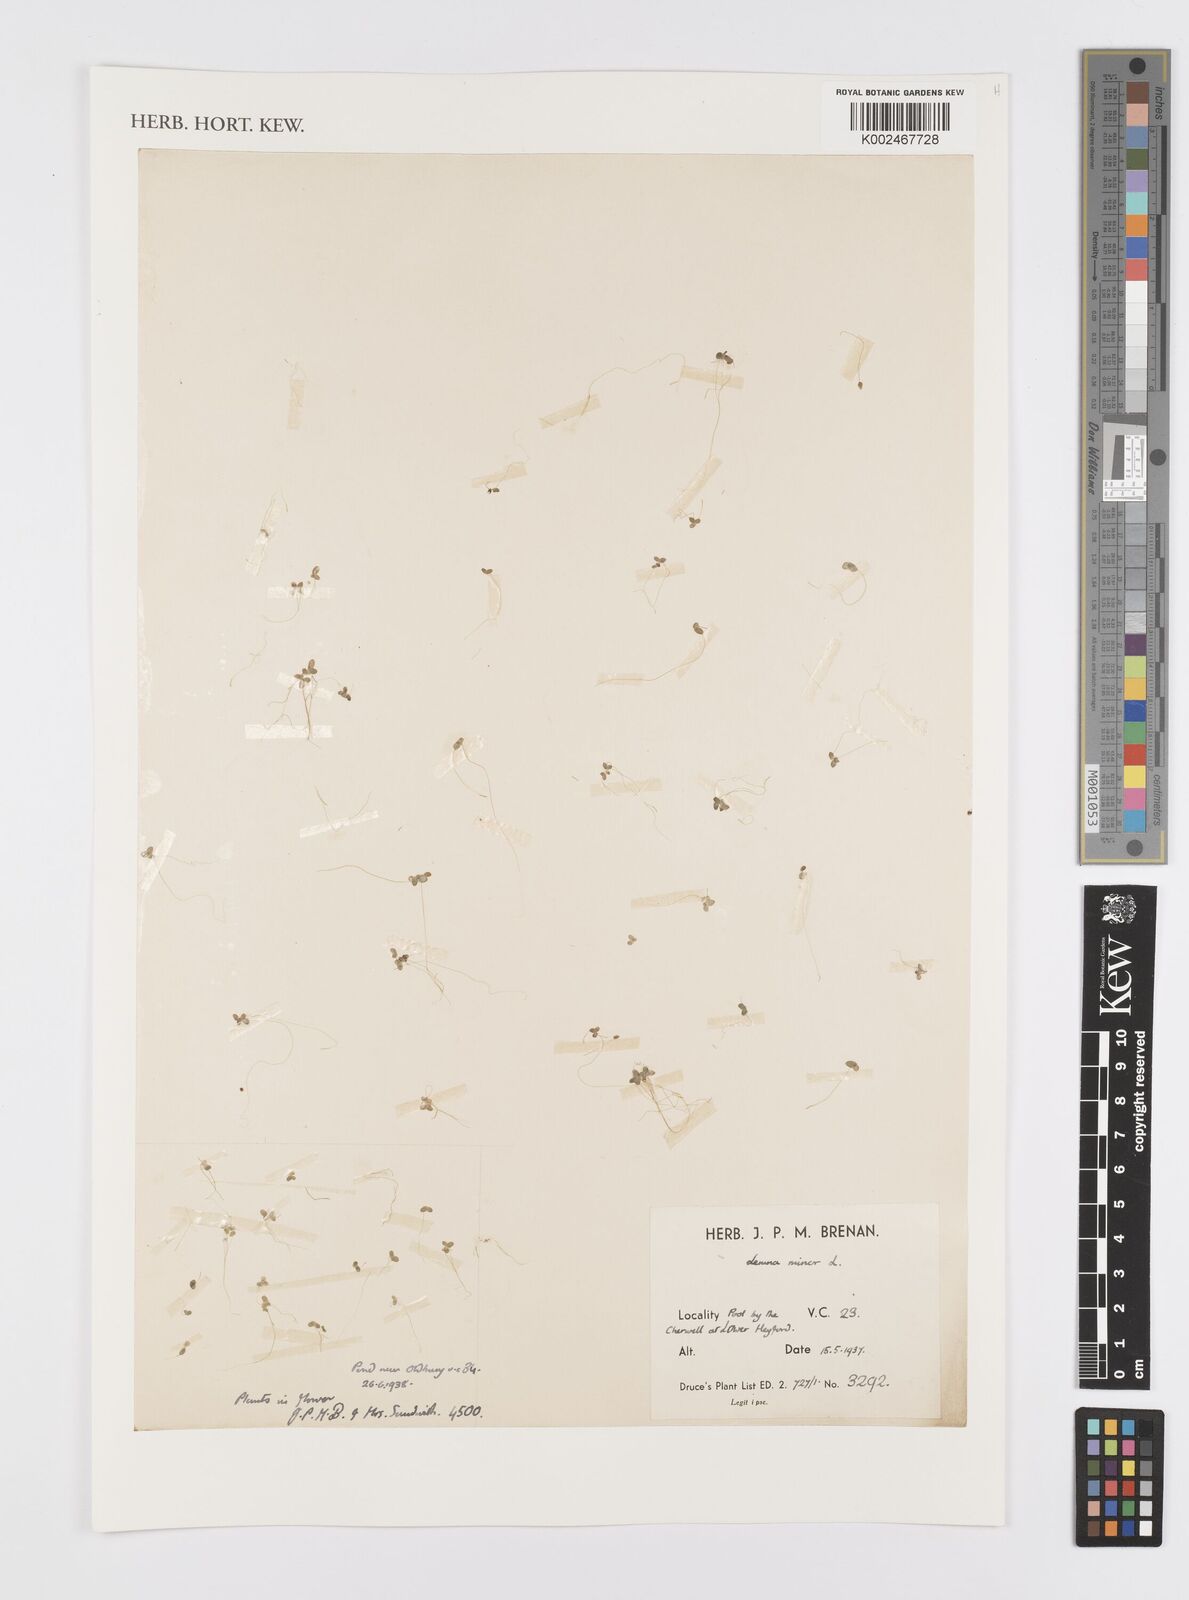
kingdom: Plantae
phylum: Tracheophyta
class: Liliopsida
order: Alismatales
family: Araceae
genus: Lemna
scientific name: Lemna minor
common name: Common duckweed
